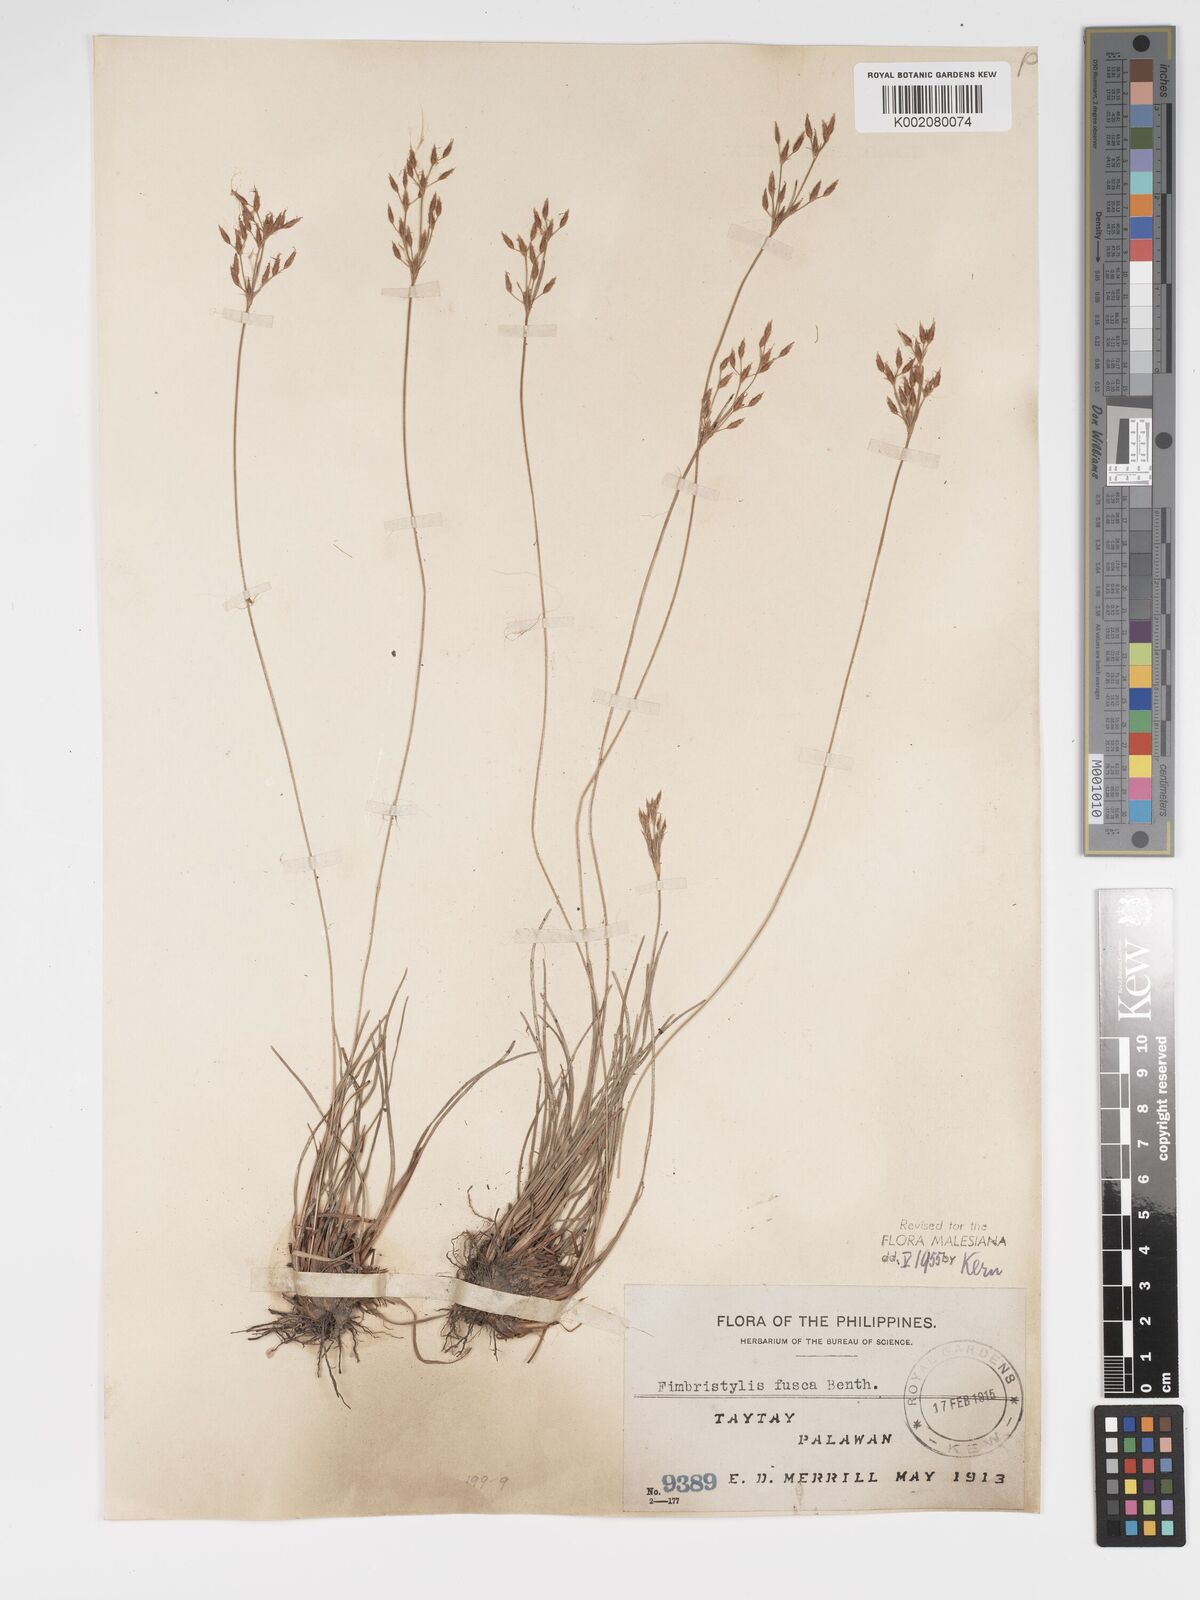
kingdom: Plantae
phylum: Tracheophyta
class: Liliopsida
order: Poales
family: Cyperaceae
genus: Fimbristylis
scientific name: Fimbristylis fusca
